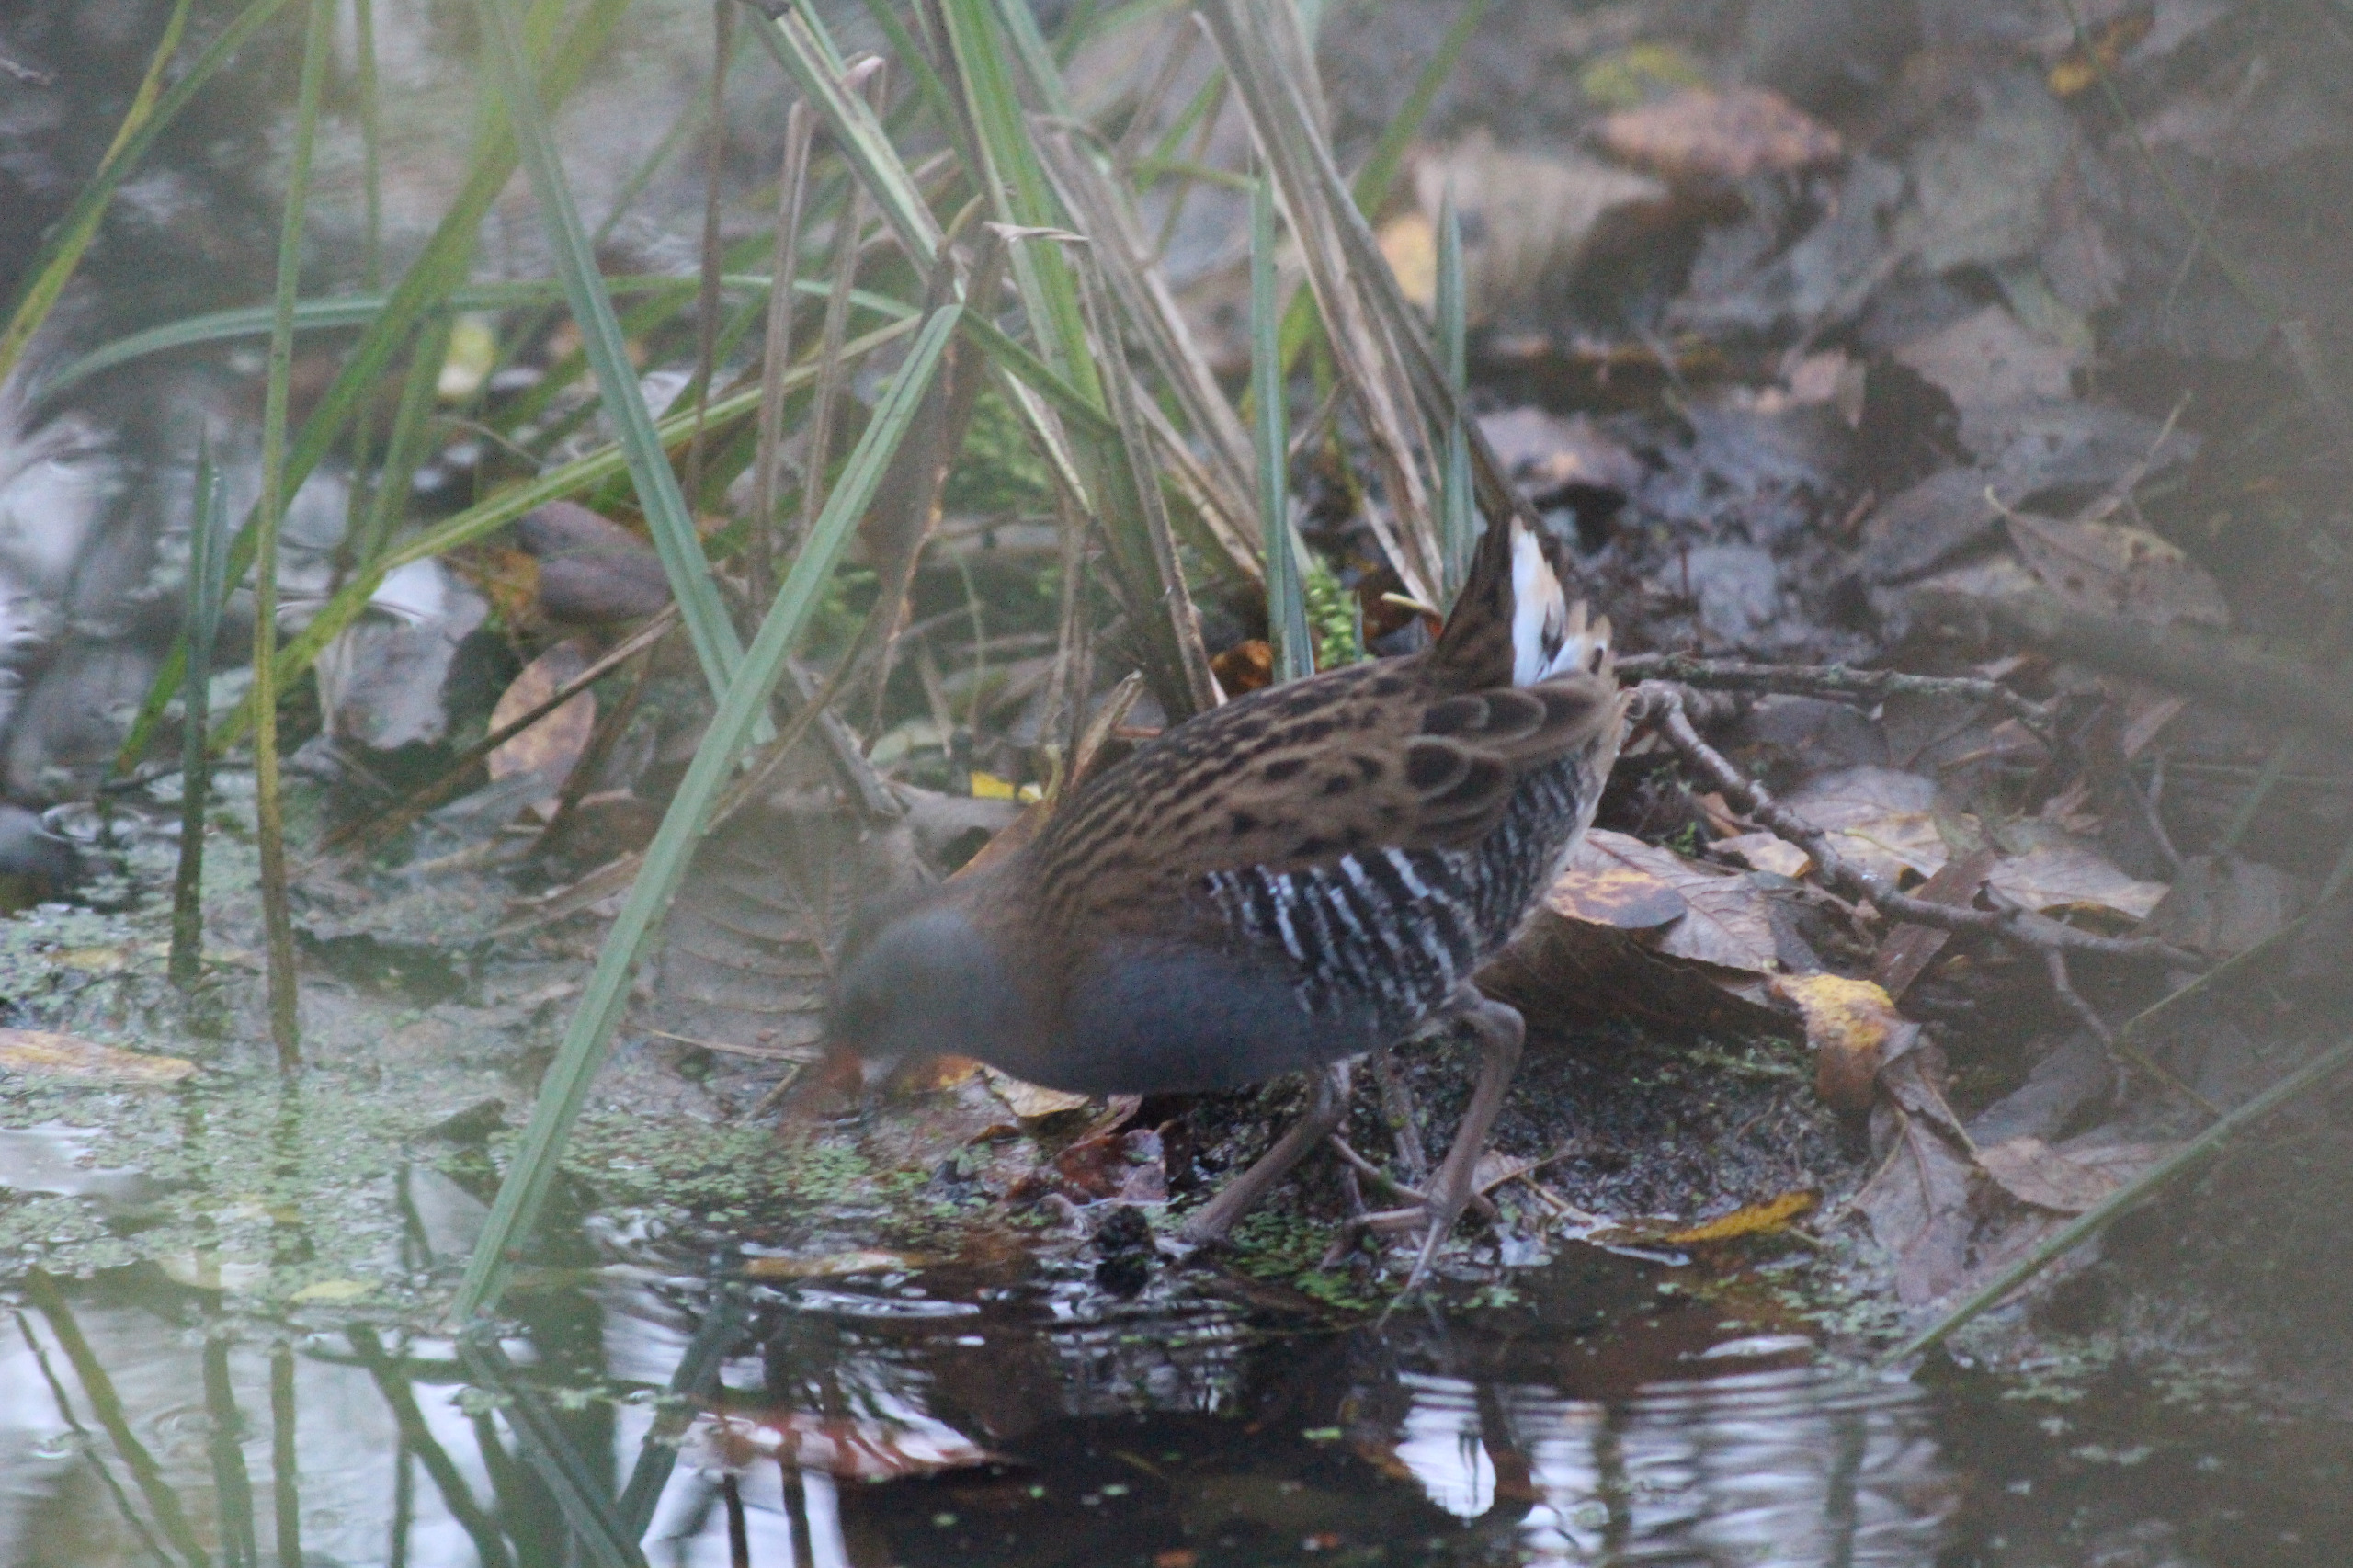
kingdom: Animalia
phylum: Chordata
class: Aves
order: Gruiformes
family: Rallidae
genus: Rallus
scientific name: Rallus aquaticus
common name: Vandrikse
